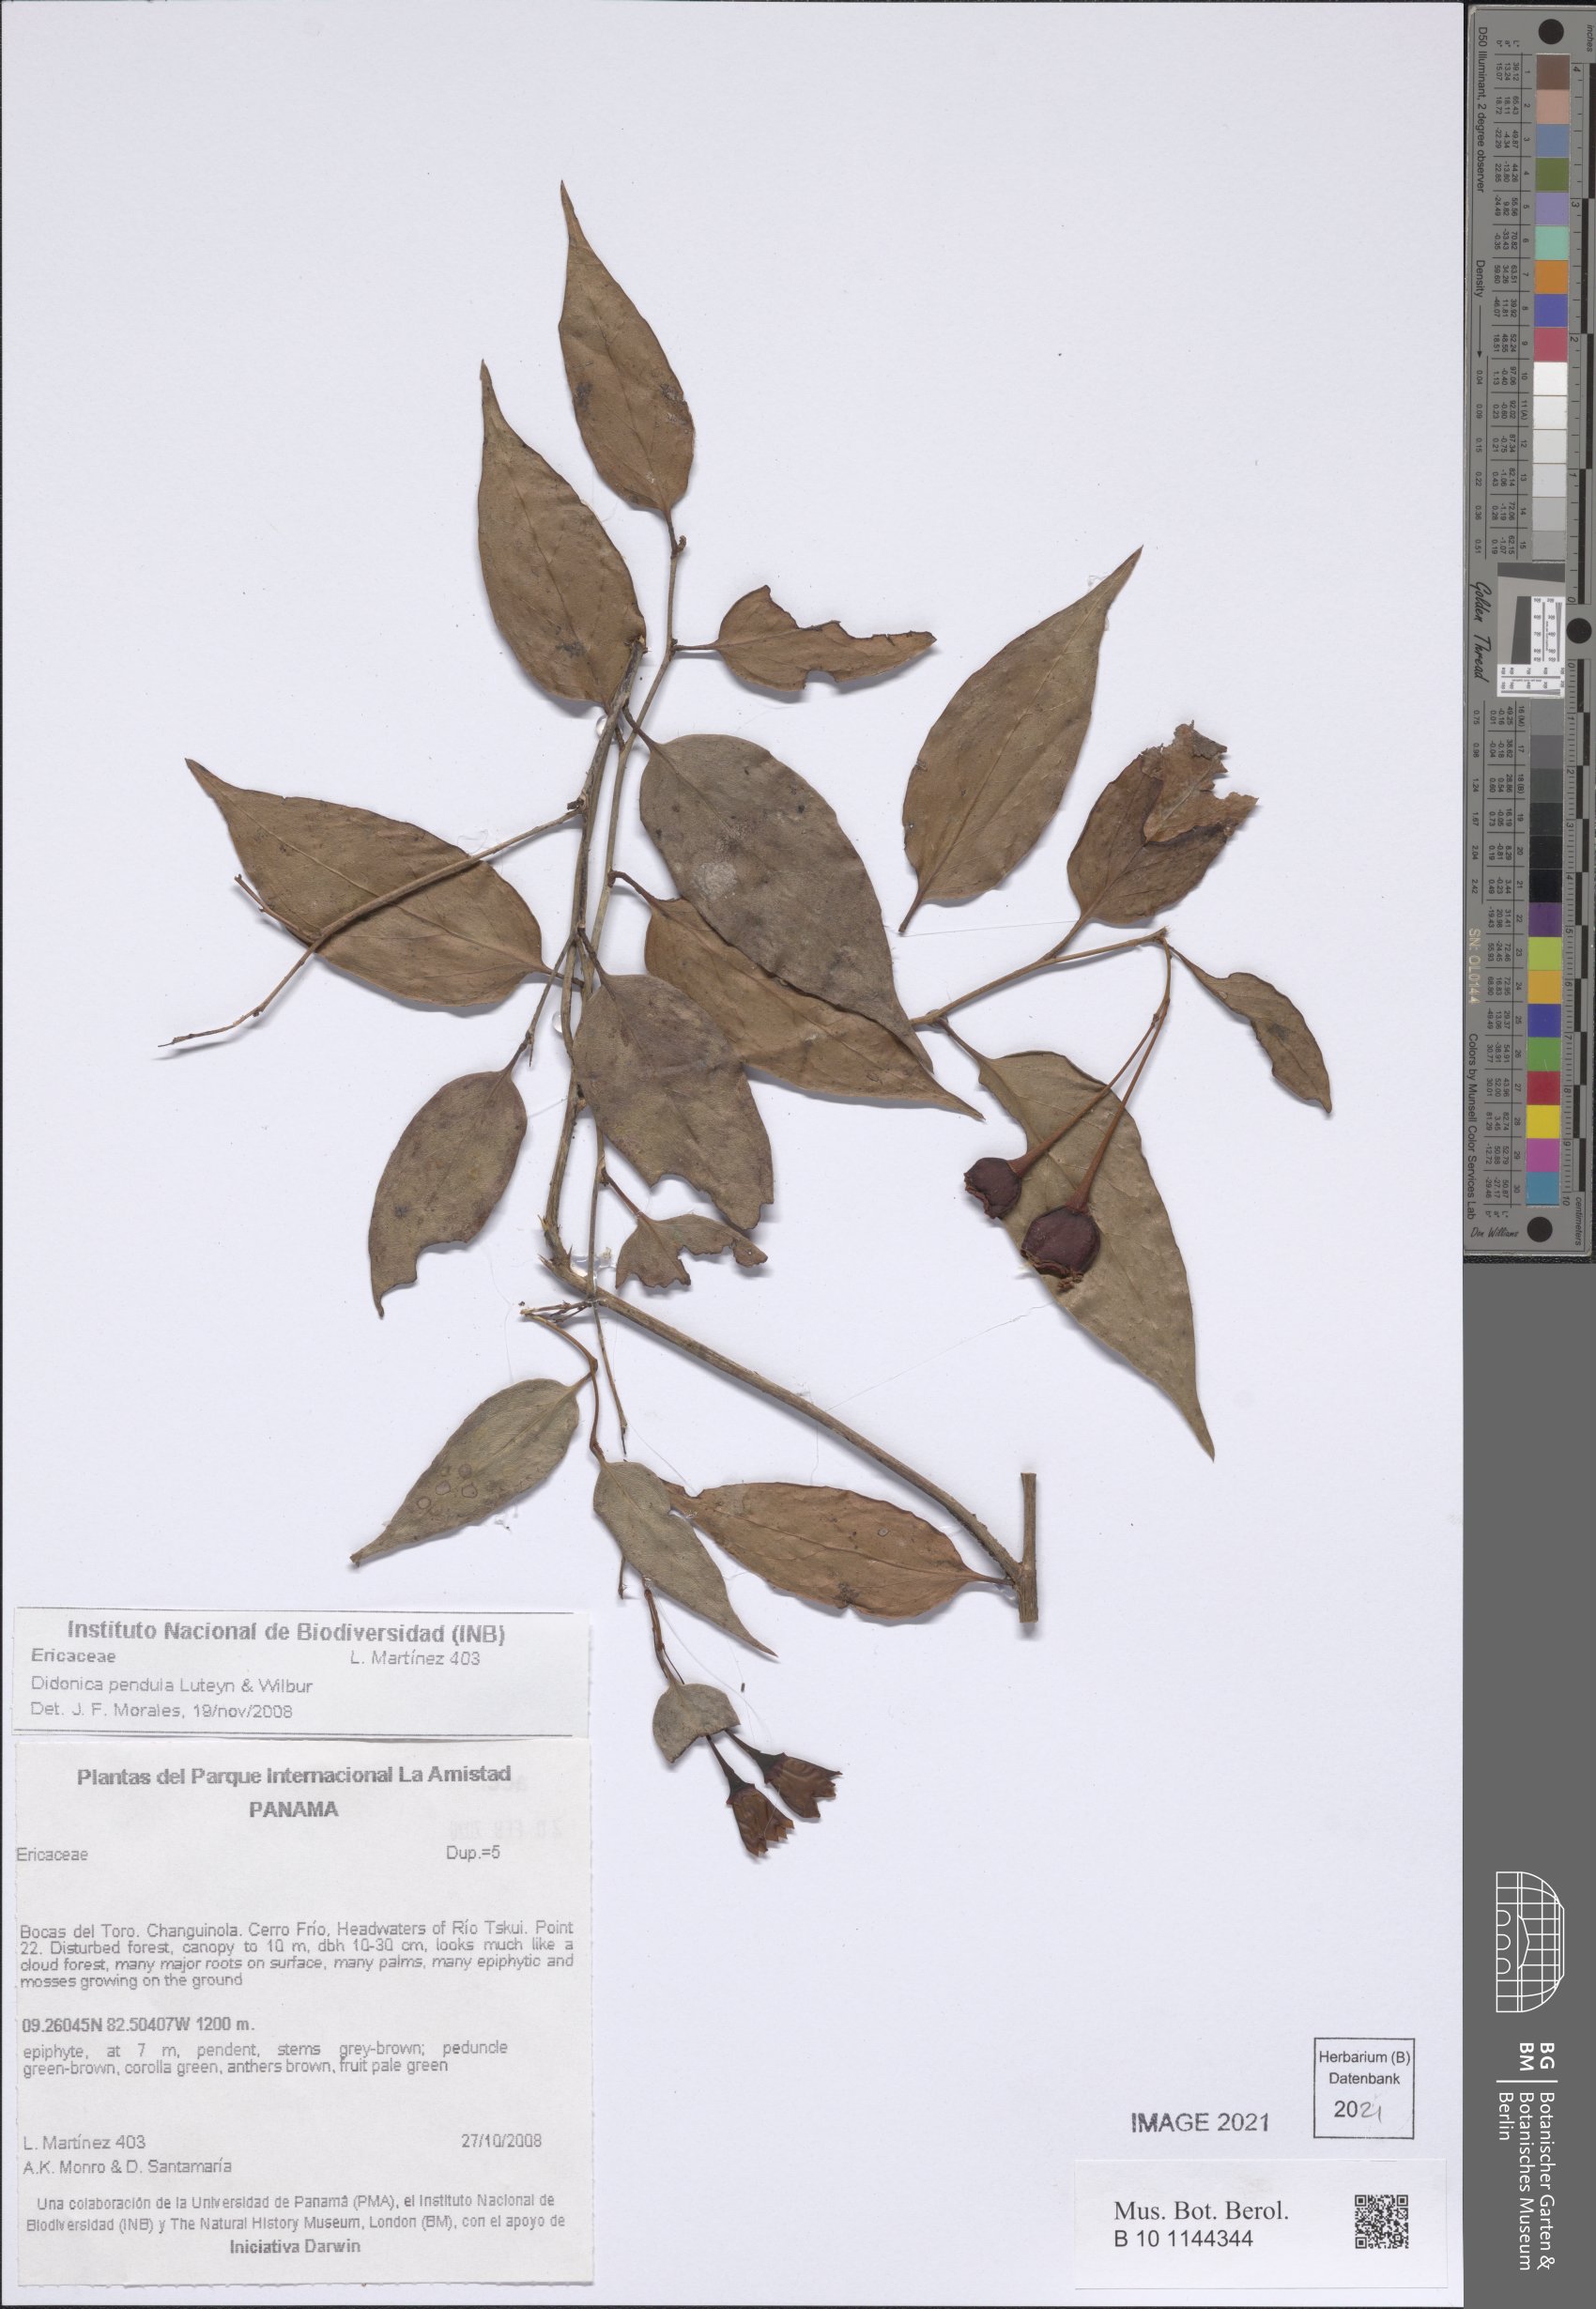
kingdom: Plantae
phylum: Tracheophyta
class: Magnoliopsida
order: Ericales
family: Ericaceae
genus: Didonica
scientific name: Didonica pendula
